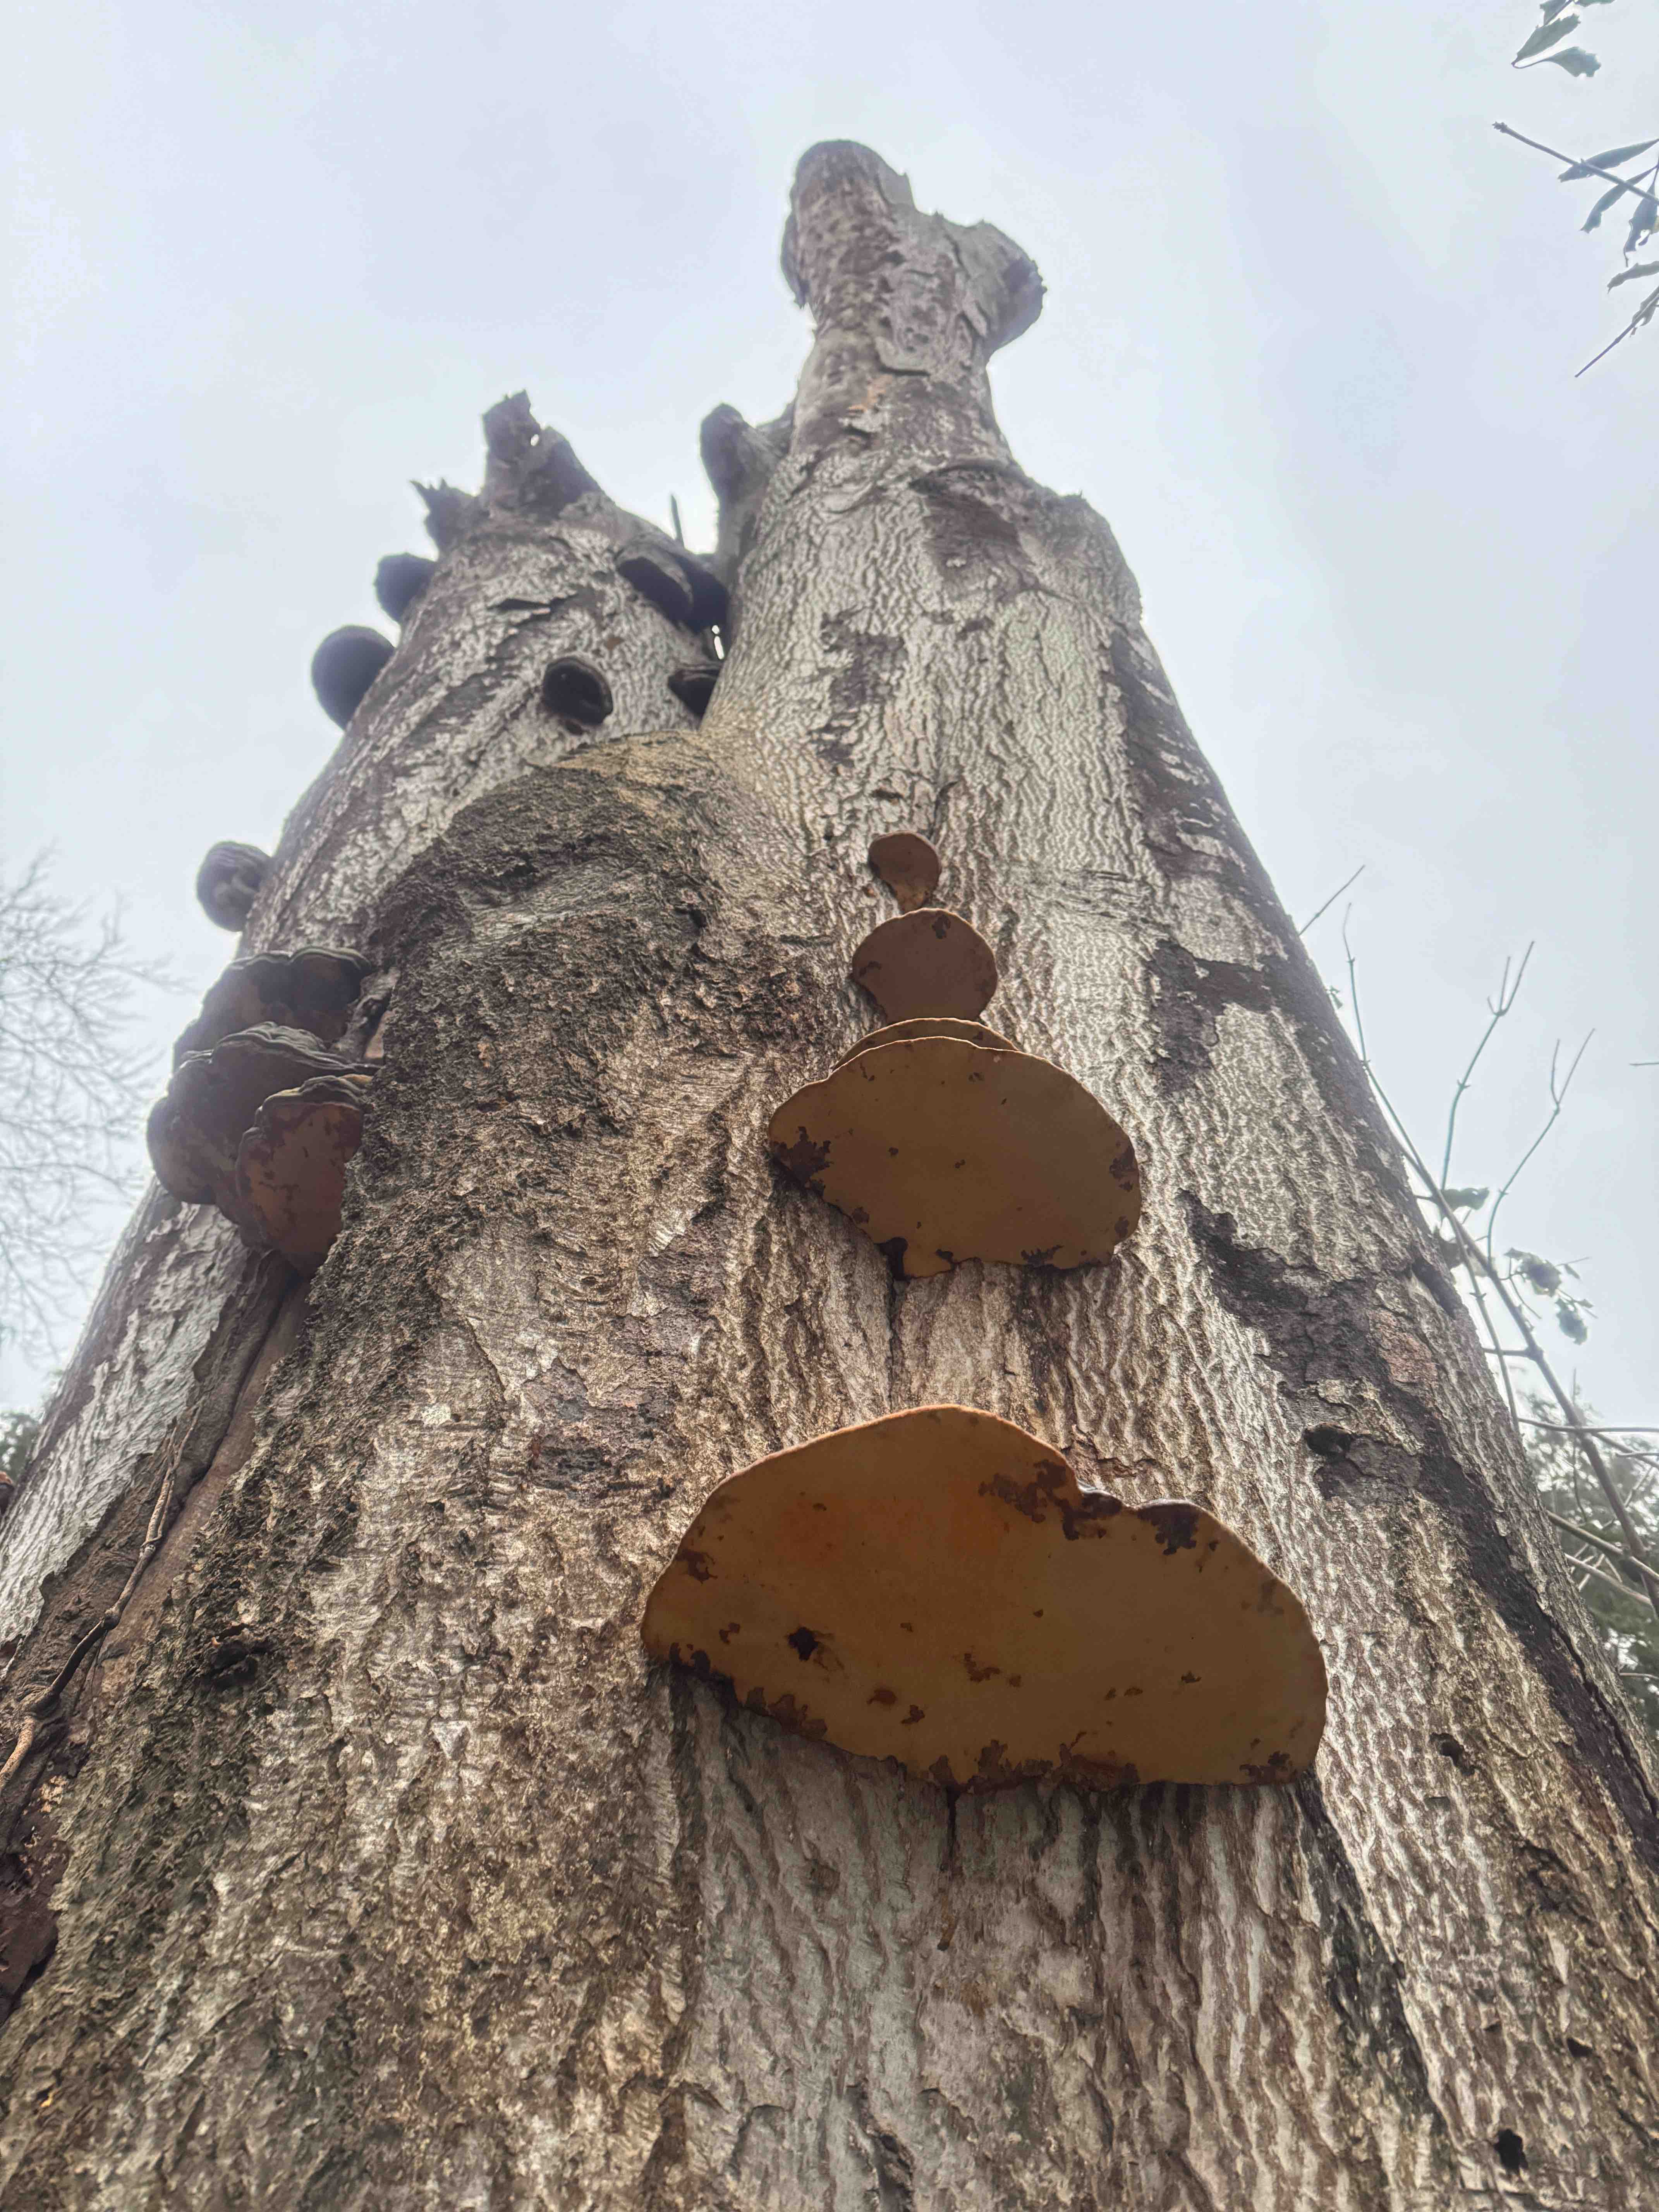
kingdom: Fungi
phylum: Basidiomycota
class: Agaricomycetes
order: Polyporales
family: Polyporaceae
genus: Fomes
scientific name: Fomes fomentarius
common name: tøndersvamp
